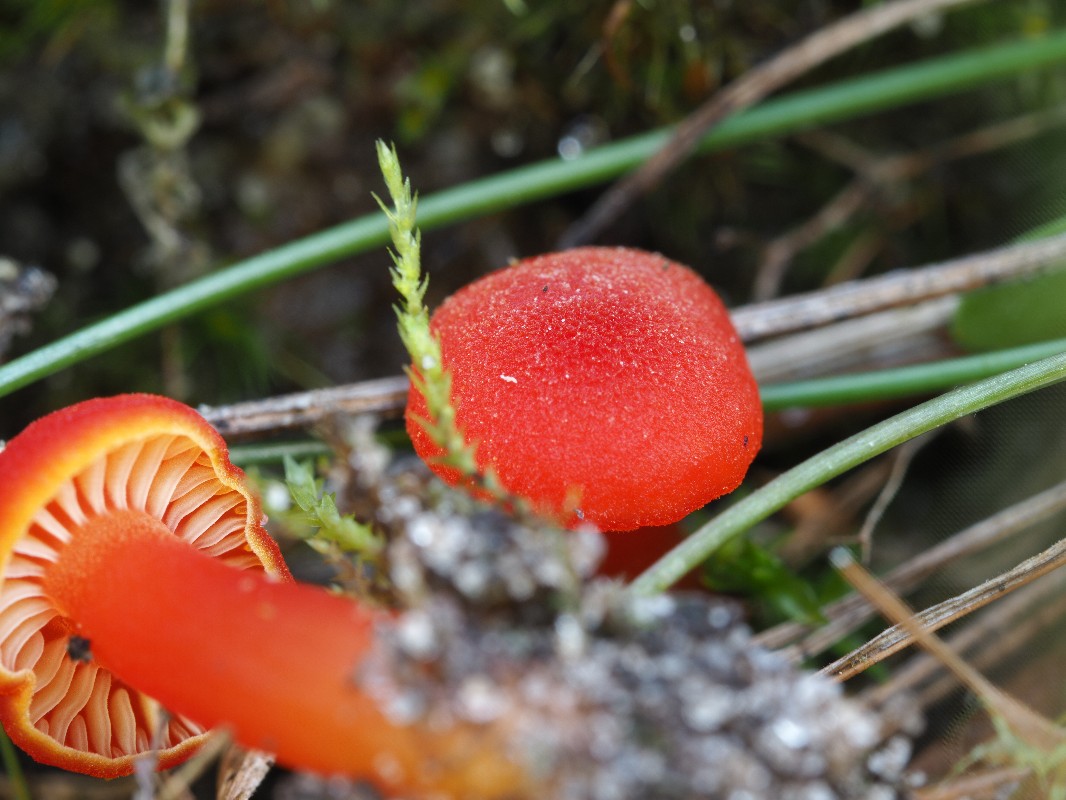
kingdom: Fungi
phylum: Basidiomycota
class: Agaricomycetes
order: Agaricales
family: Hygrophoraceae
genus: Hygrocybe
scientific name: Hygrocybe miniata
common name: mønje-vokshat
